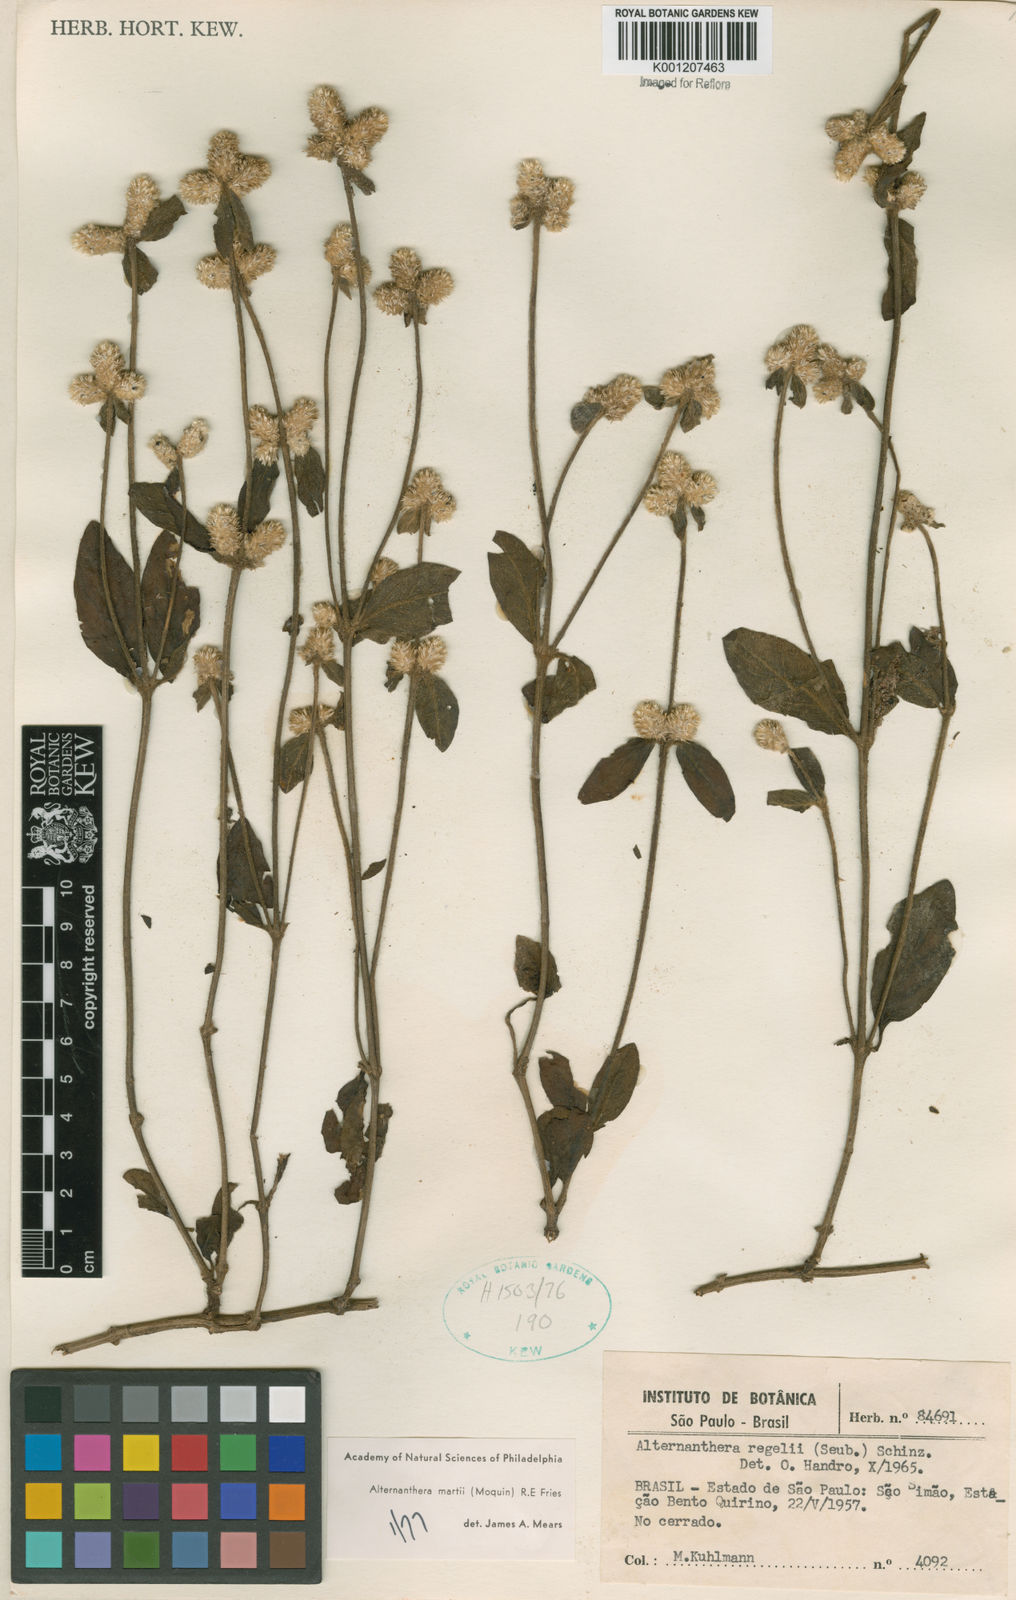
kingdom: Plantae
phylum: Tracheophyta
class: Magnoliopsida
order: Caryophyllales
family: Amaranthaceae
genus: Alternanthera
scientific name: Alternanthera martii
